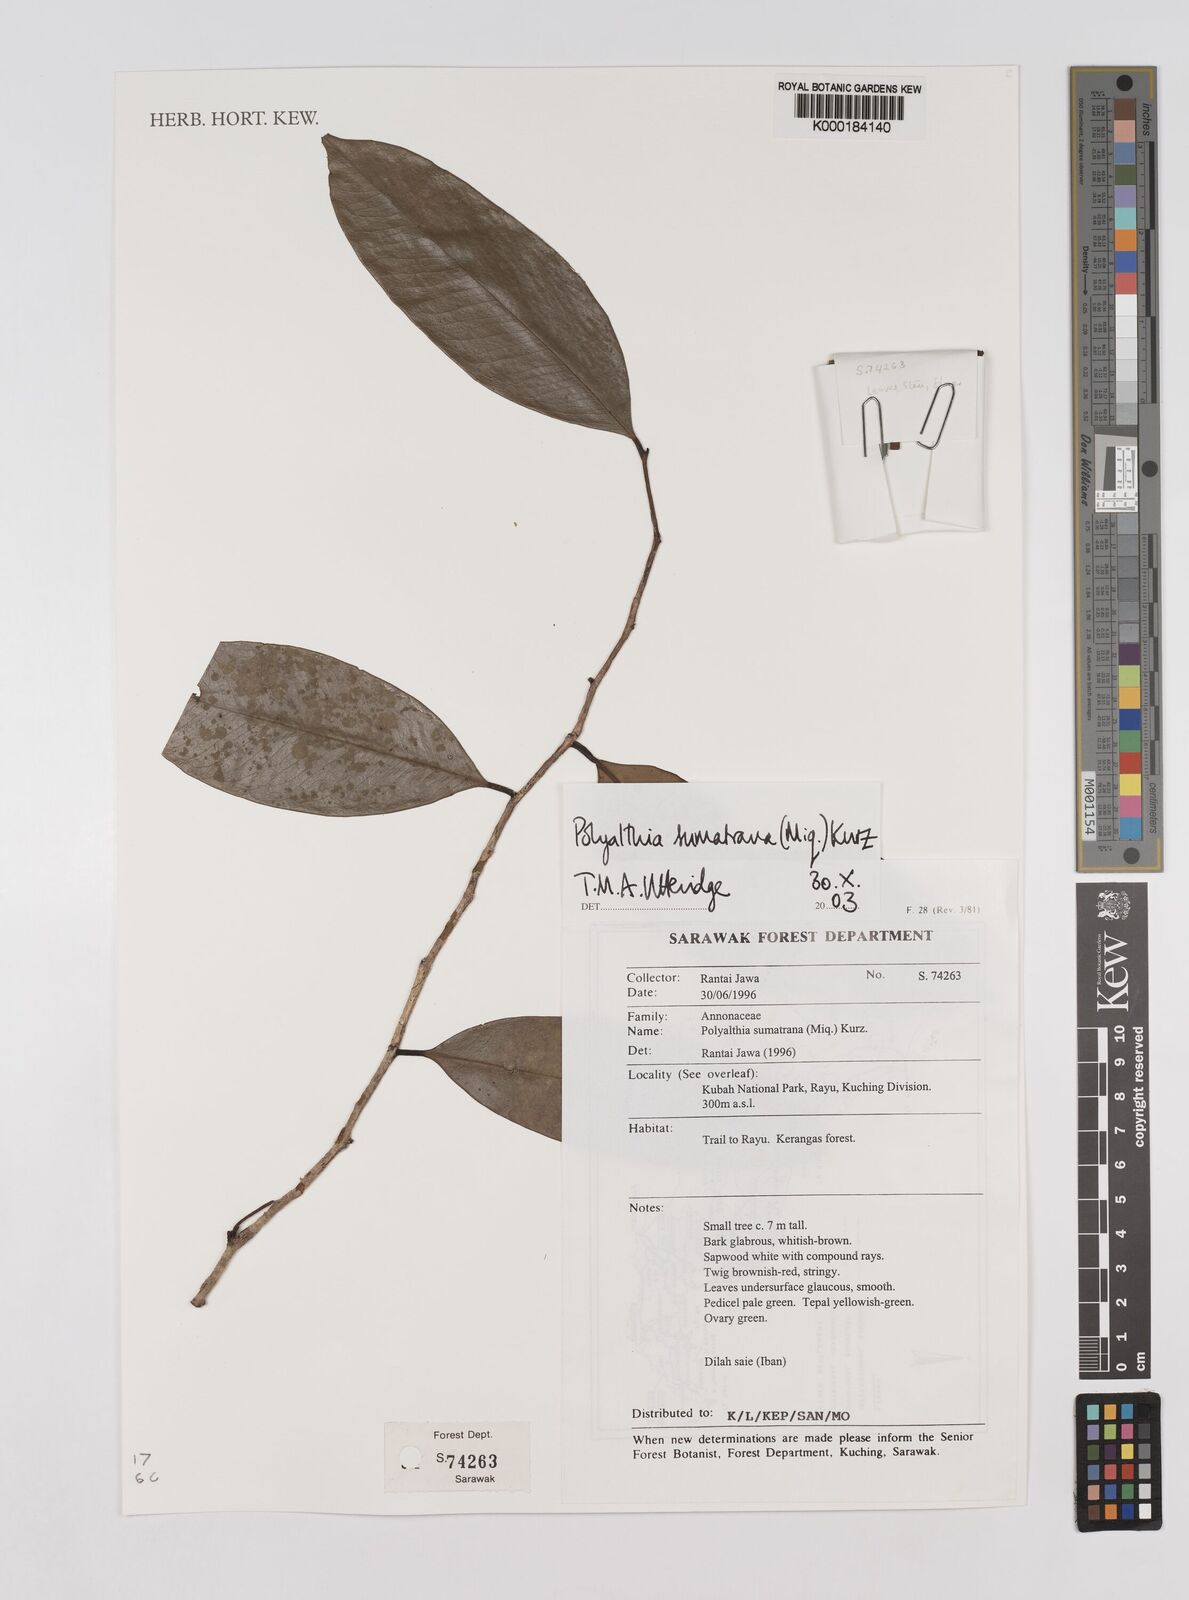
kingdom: Plantae
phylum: Tracheophyta
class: Magnoliopsida
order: Magnoliales
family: Annonaceae
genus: Maasia
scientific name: Maasia sumatrana
